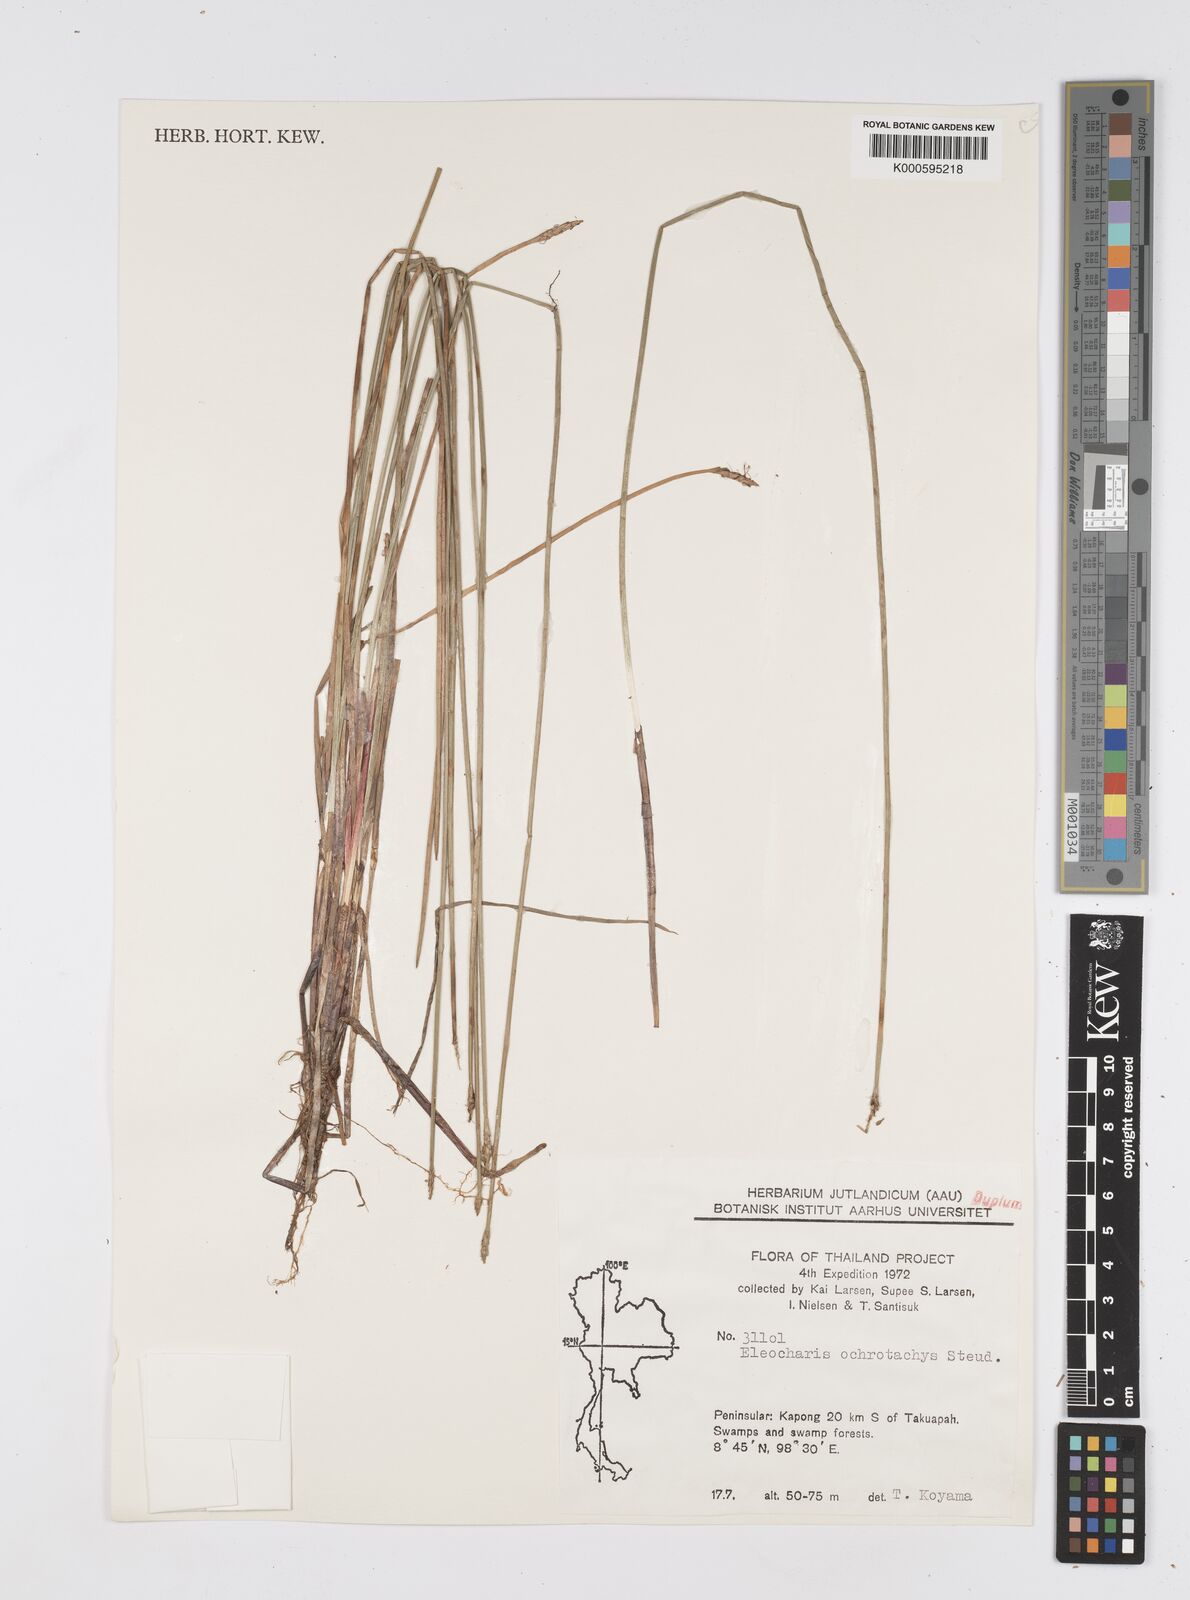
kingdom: Plantae
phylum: Tracheophyta
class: Liliopsida
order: Poales
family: Cyperaceae
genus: Eleocharis
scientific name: Eleocharis ochrostachys
